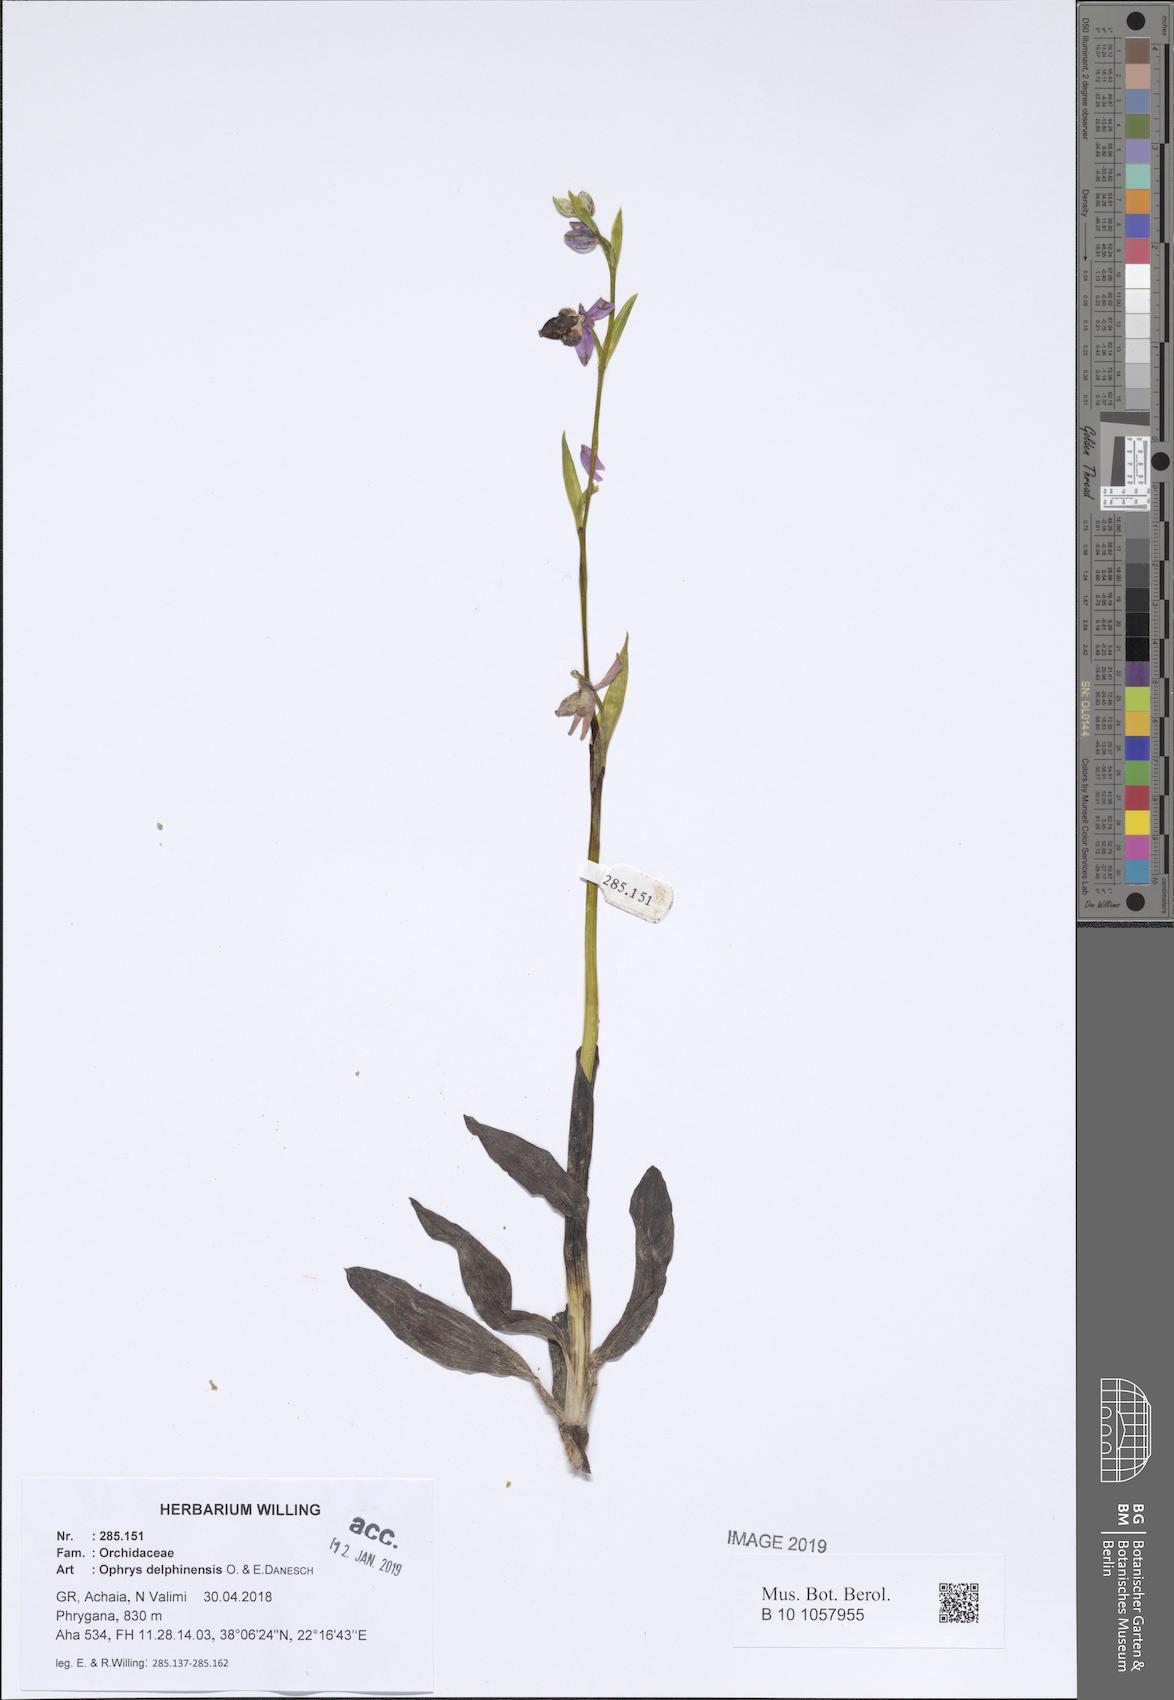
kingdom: Plantae
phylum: Tracheophyta
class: Liliopsida
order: Asparagales
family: Orchidaceae
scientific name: Orchidaceae
